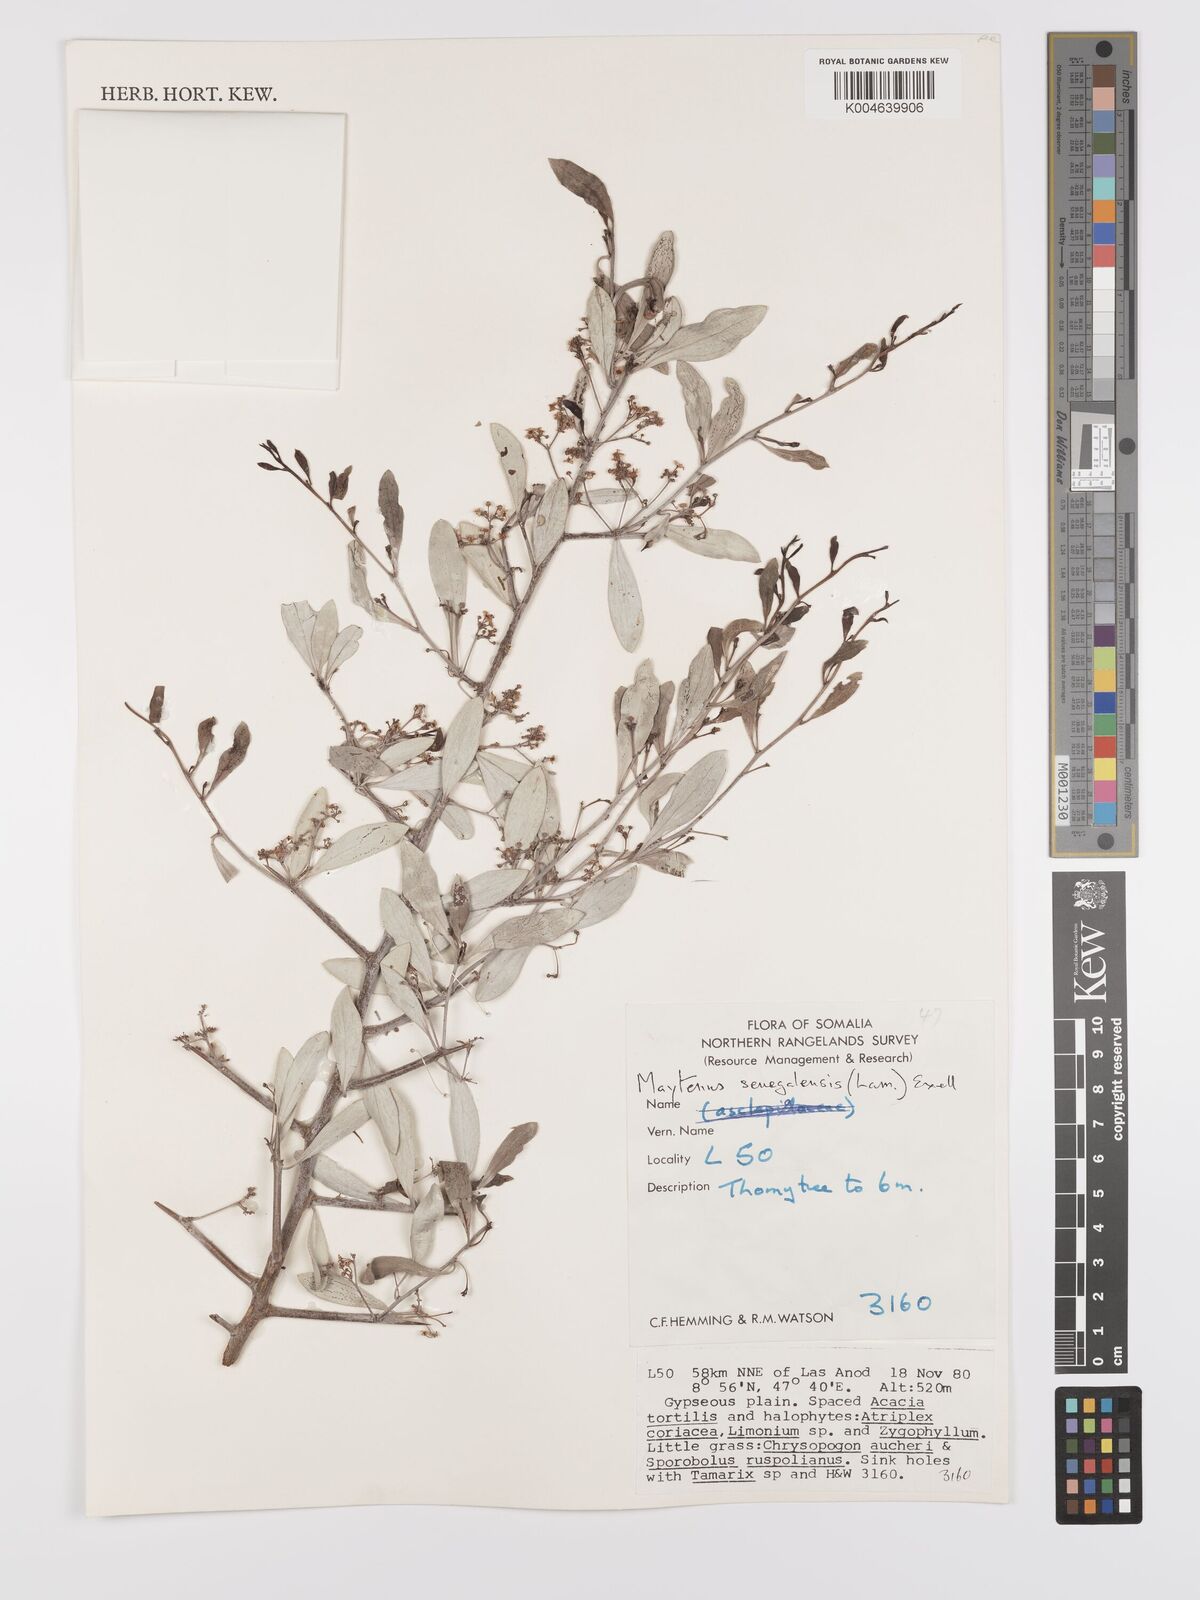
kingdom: Plantae
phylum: Tracheophyta
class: Magnoliopsida
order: Celastrales
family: Celastraceae
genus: Gymnosporia
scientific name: Gymnosporia senegalensis
